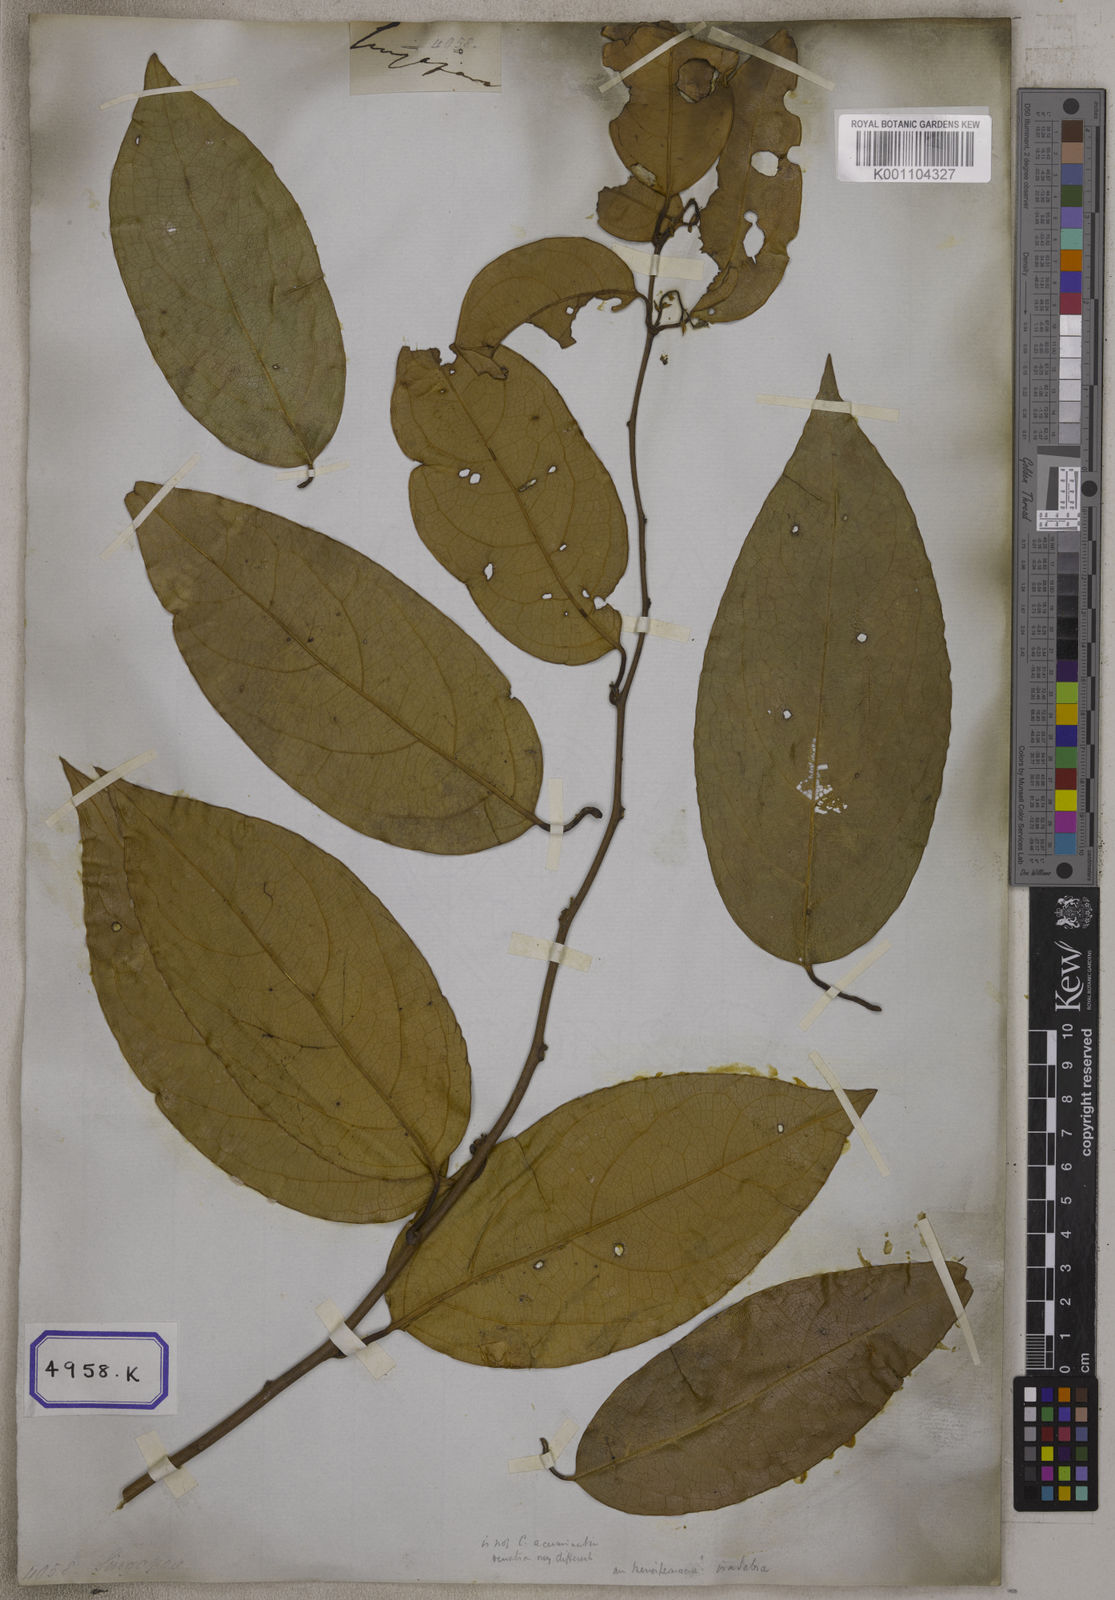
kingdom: Plantae
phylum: Tracheophyta
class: Magnoliopsida
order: Ranunculales
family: Menispermaceae
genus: Cocculus
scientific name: Cocculus
